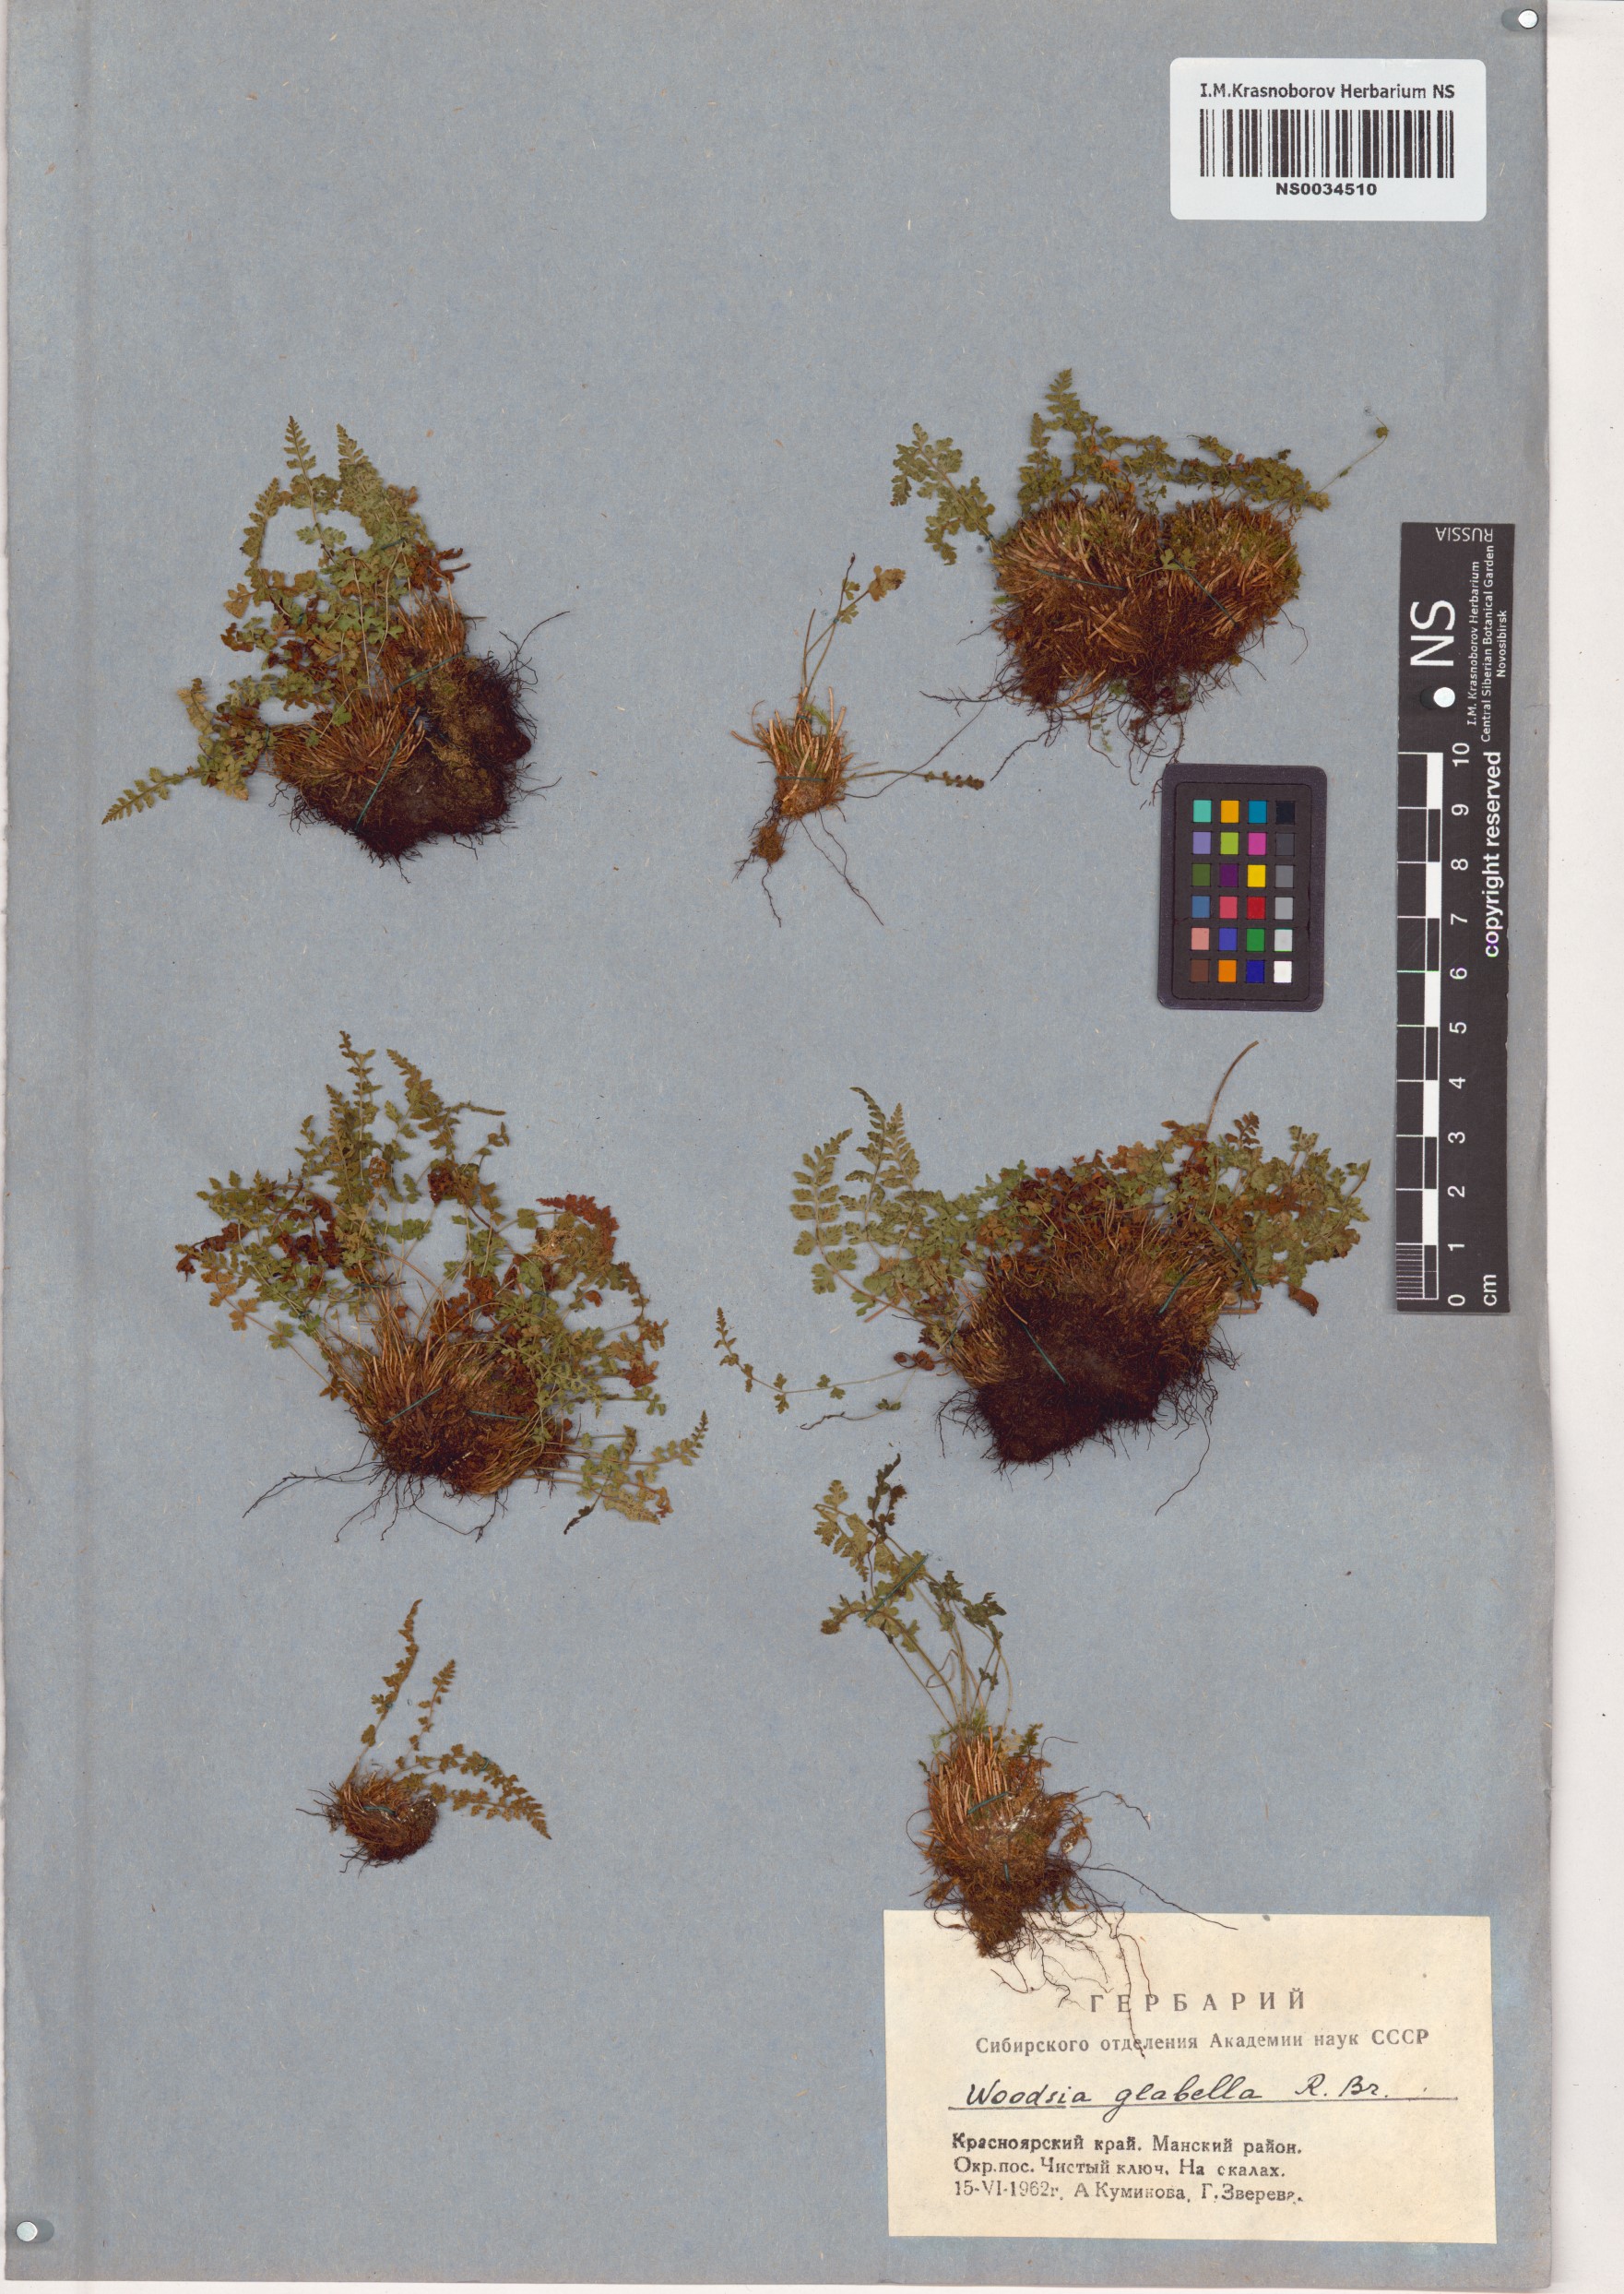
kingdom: Plantae
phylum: Tracheophyta
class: Polypodiopsida
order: Polypodiales
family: Woodsiaceae
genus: Woodsia
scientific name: Woodsia glabella
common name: Smooth woodsia
